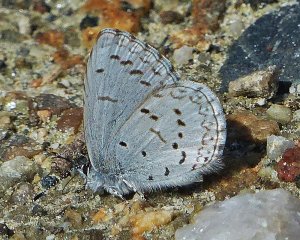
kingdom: Animalia
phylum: Arthropoda
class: Insecta
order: Lepidoptera
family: Lycaenidae
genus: Celastrina
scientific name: Celastrina ladon
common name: Echo Azure
